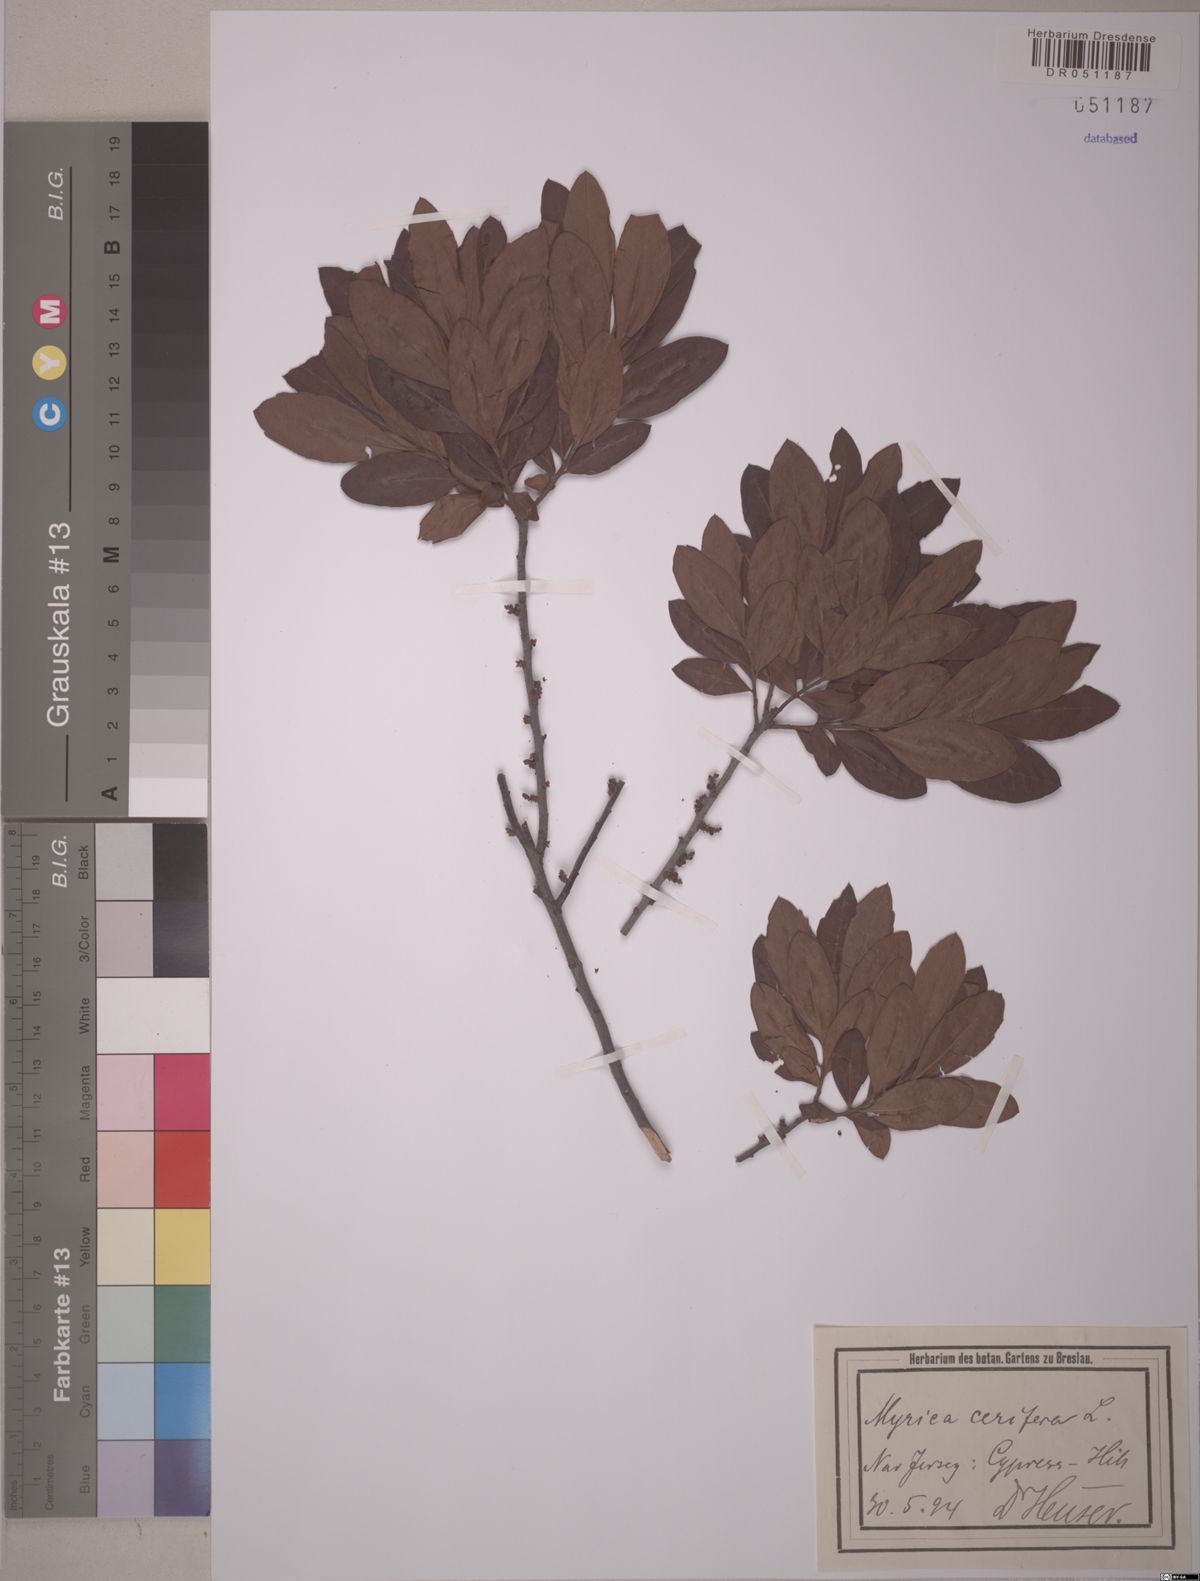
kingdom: Plantae
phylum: Tracheophyta
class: Magnoliopsida
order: Fagales
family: Myricaceae
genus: Morella
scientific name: Morella cerifera
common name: Wax myrtle
